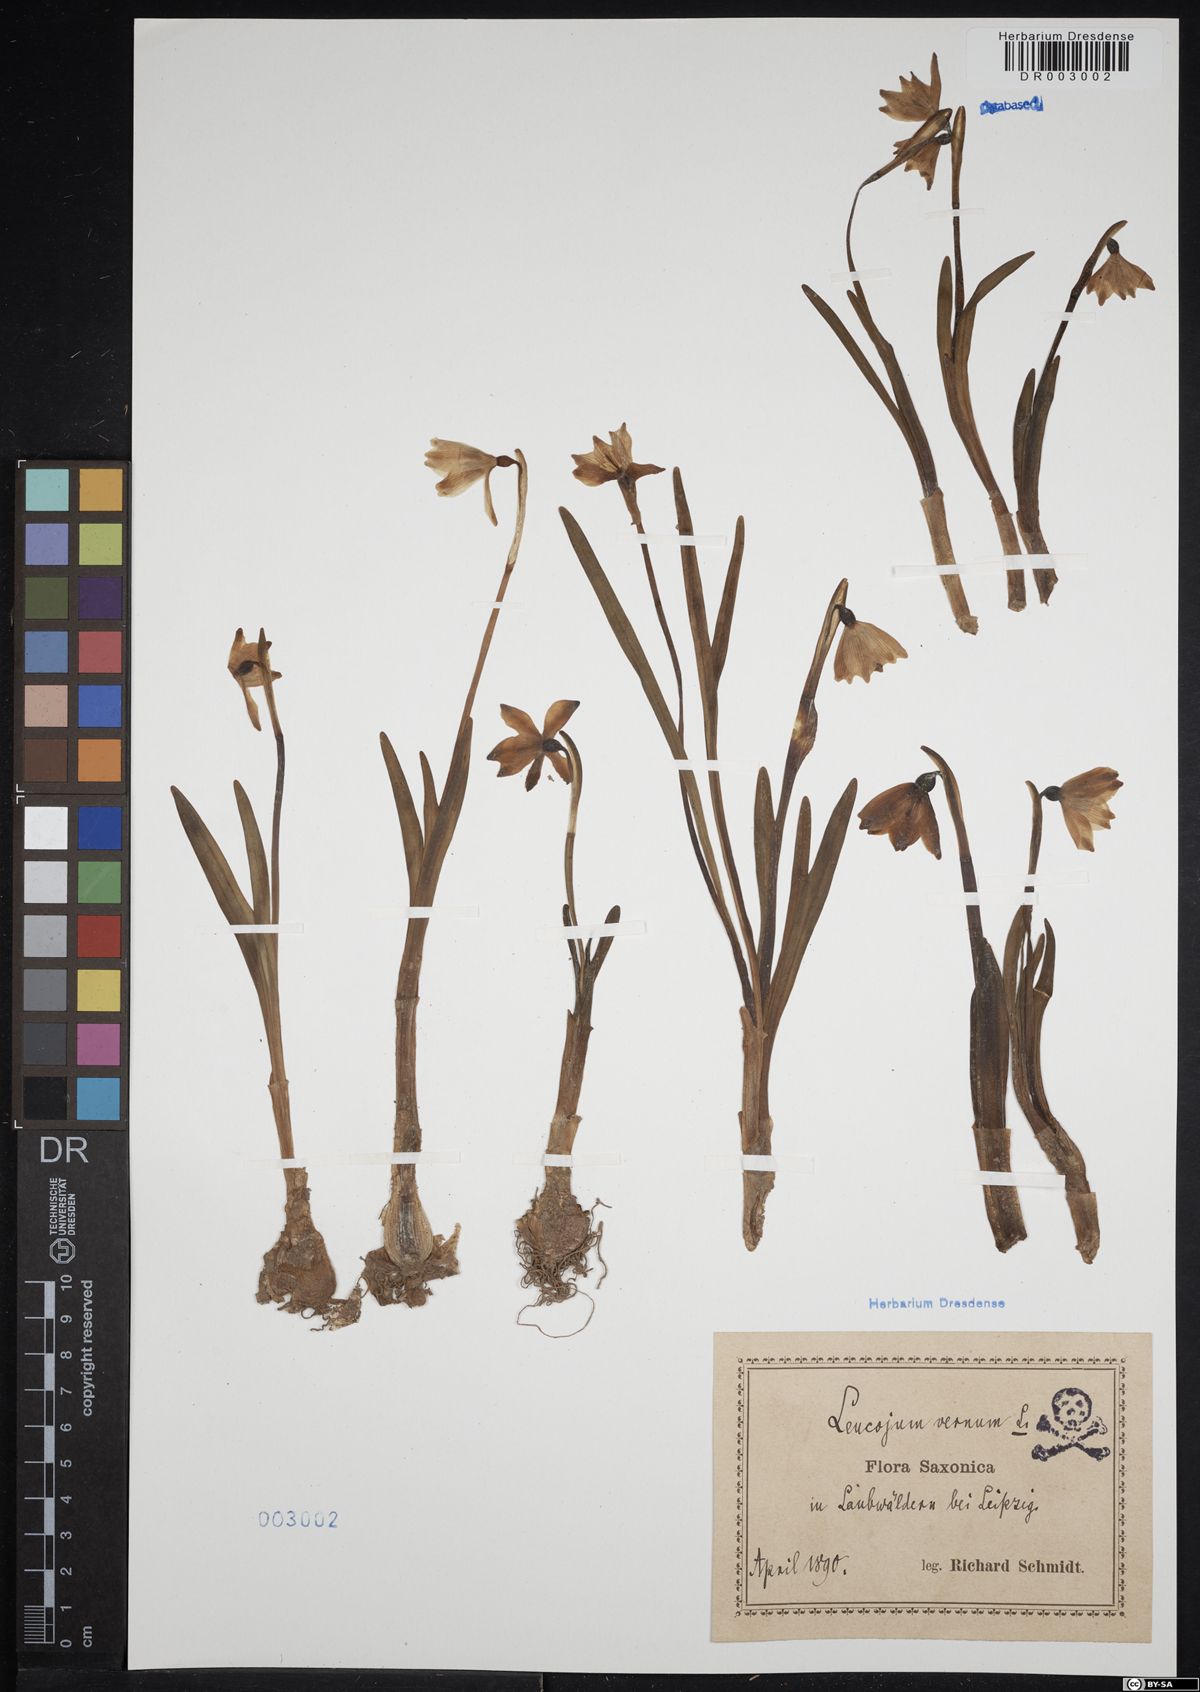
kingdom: Plantae
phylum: Tracheophyta
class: Liliopsida
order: Asparagales
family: Amaryllidaceae
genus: Leucojum
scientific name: Leucojum vernum
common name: Spring snowflake
